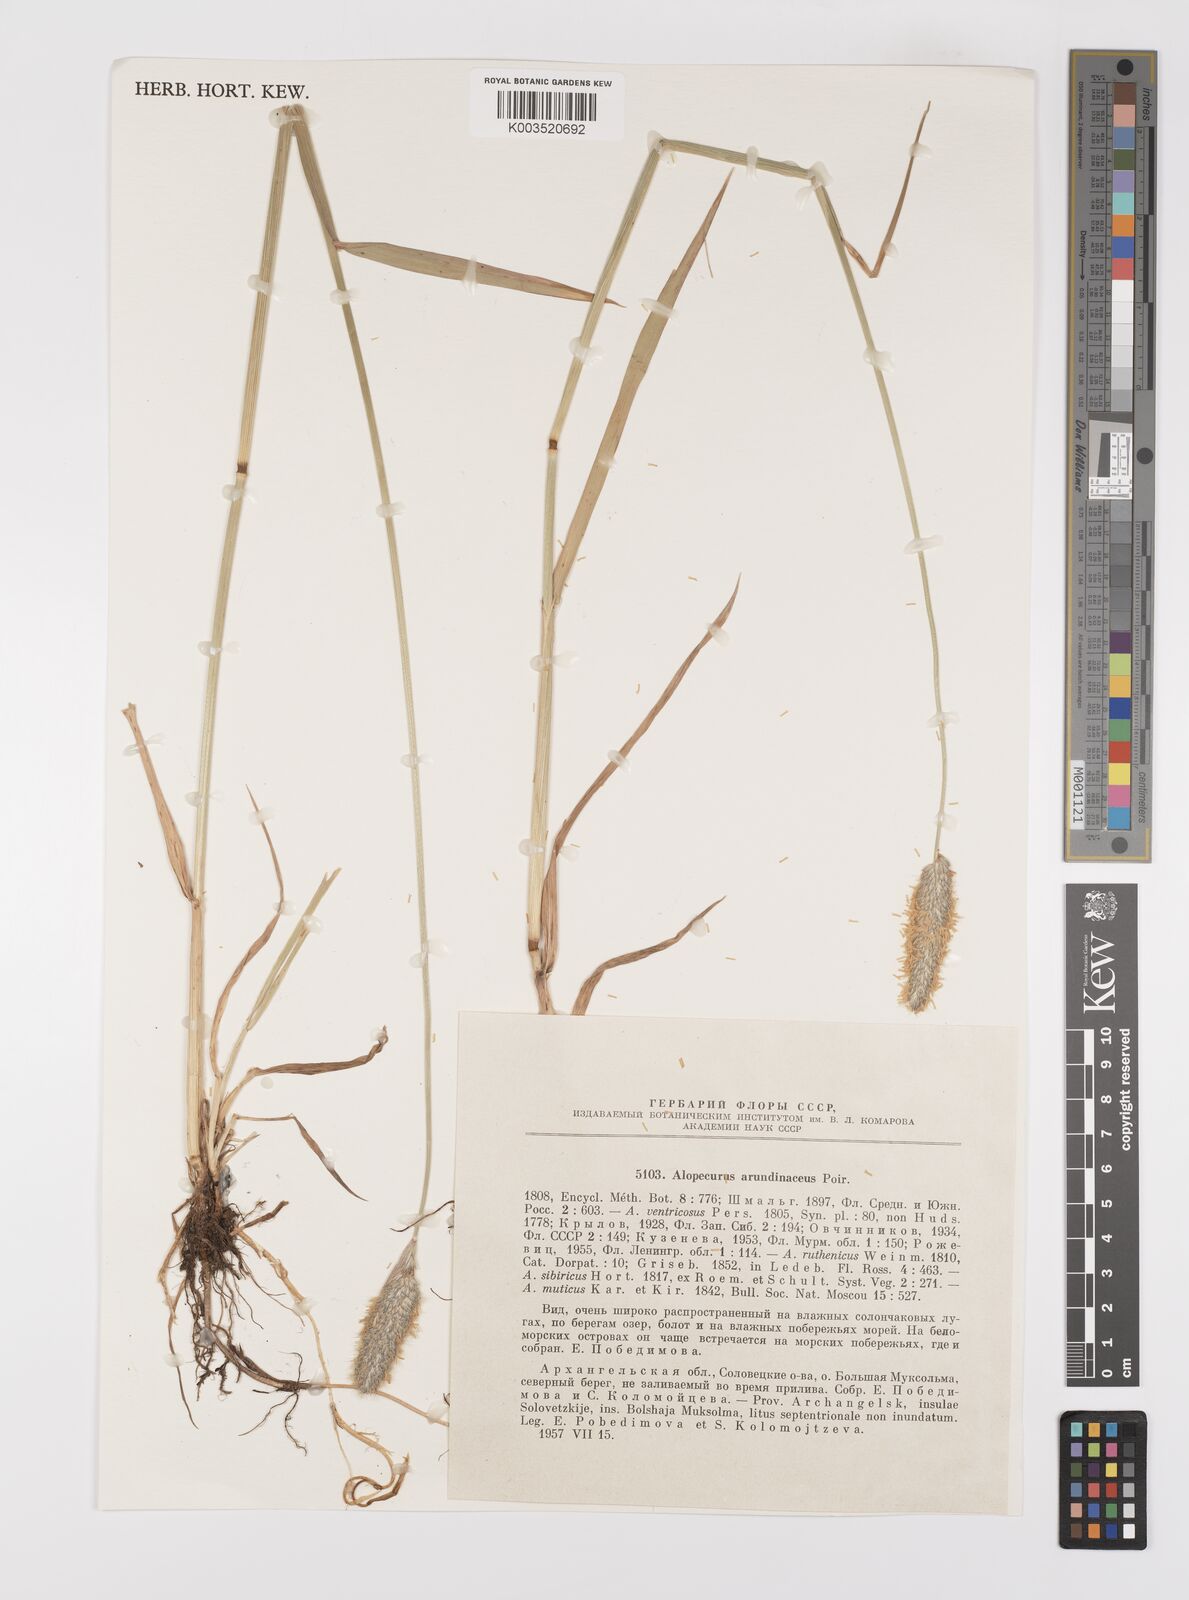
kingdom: Plantae
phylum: Tracheophyta
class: Liliopsida
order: Poales
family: Poaceae
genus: Alopecurus
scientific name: Alopecurus arundinaceus
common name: Creeping meadow foxtail
